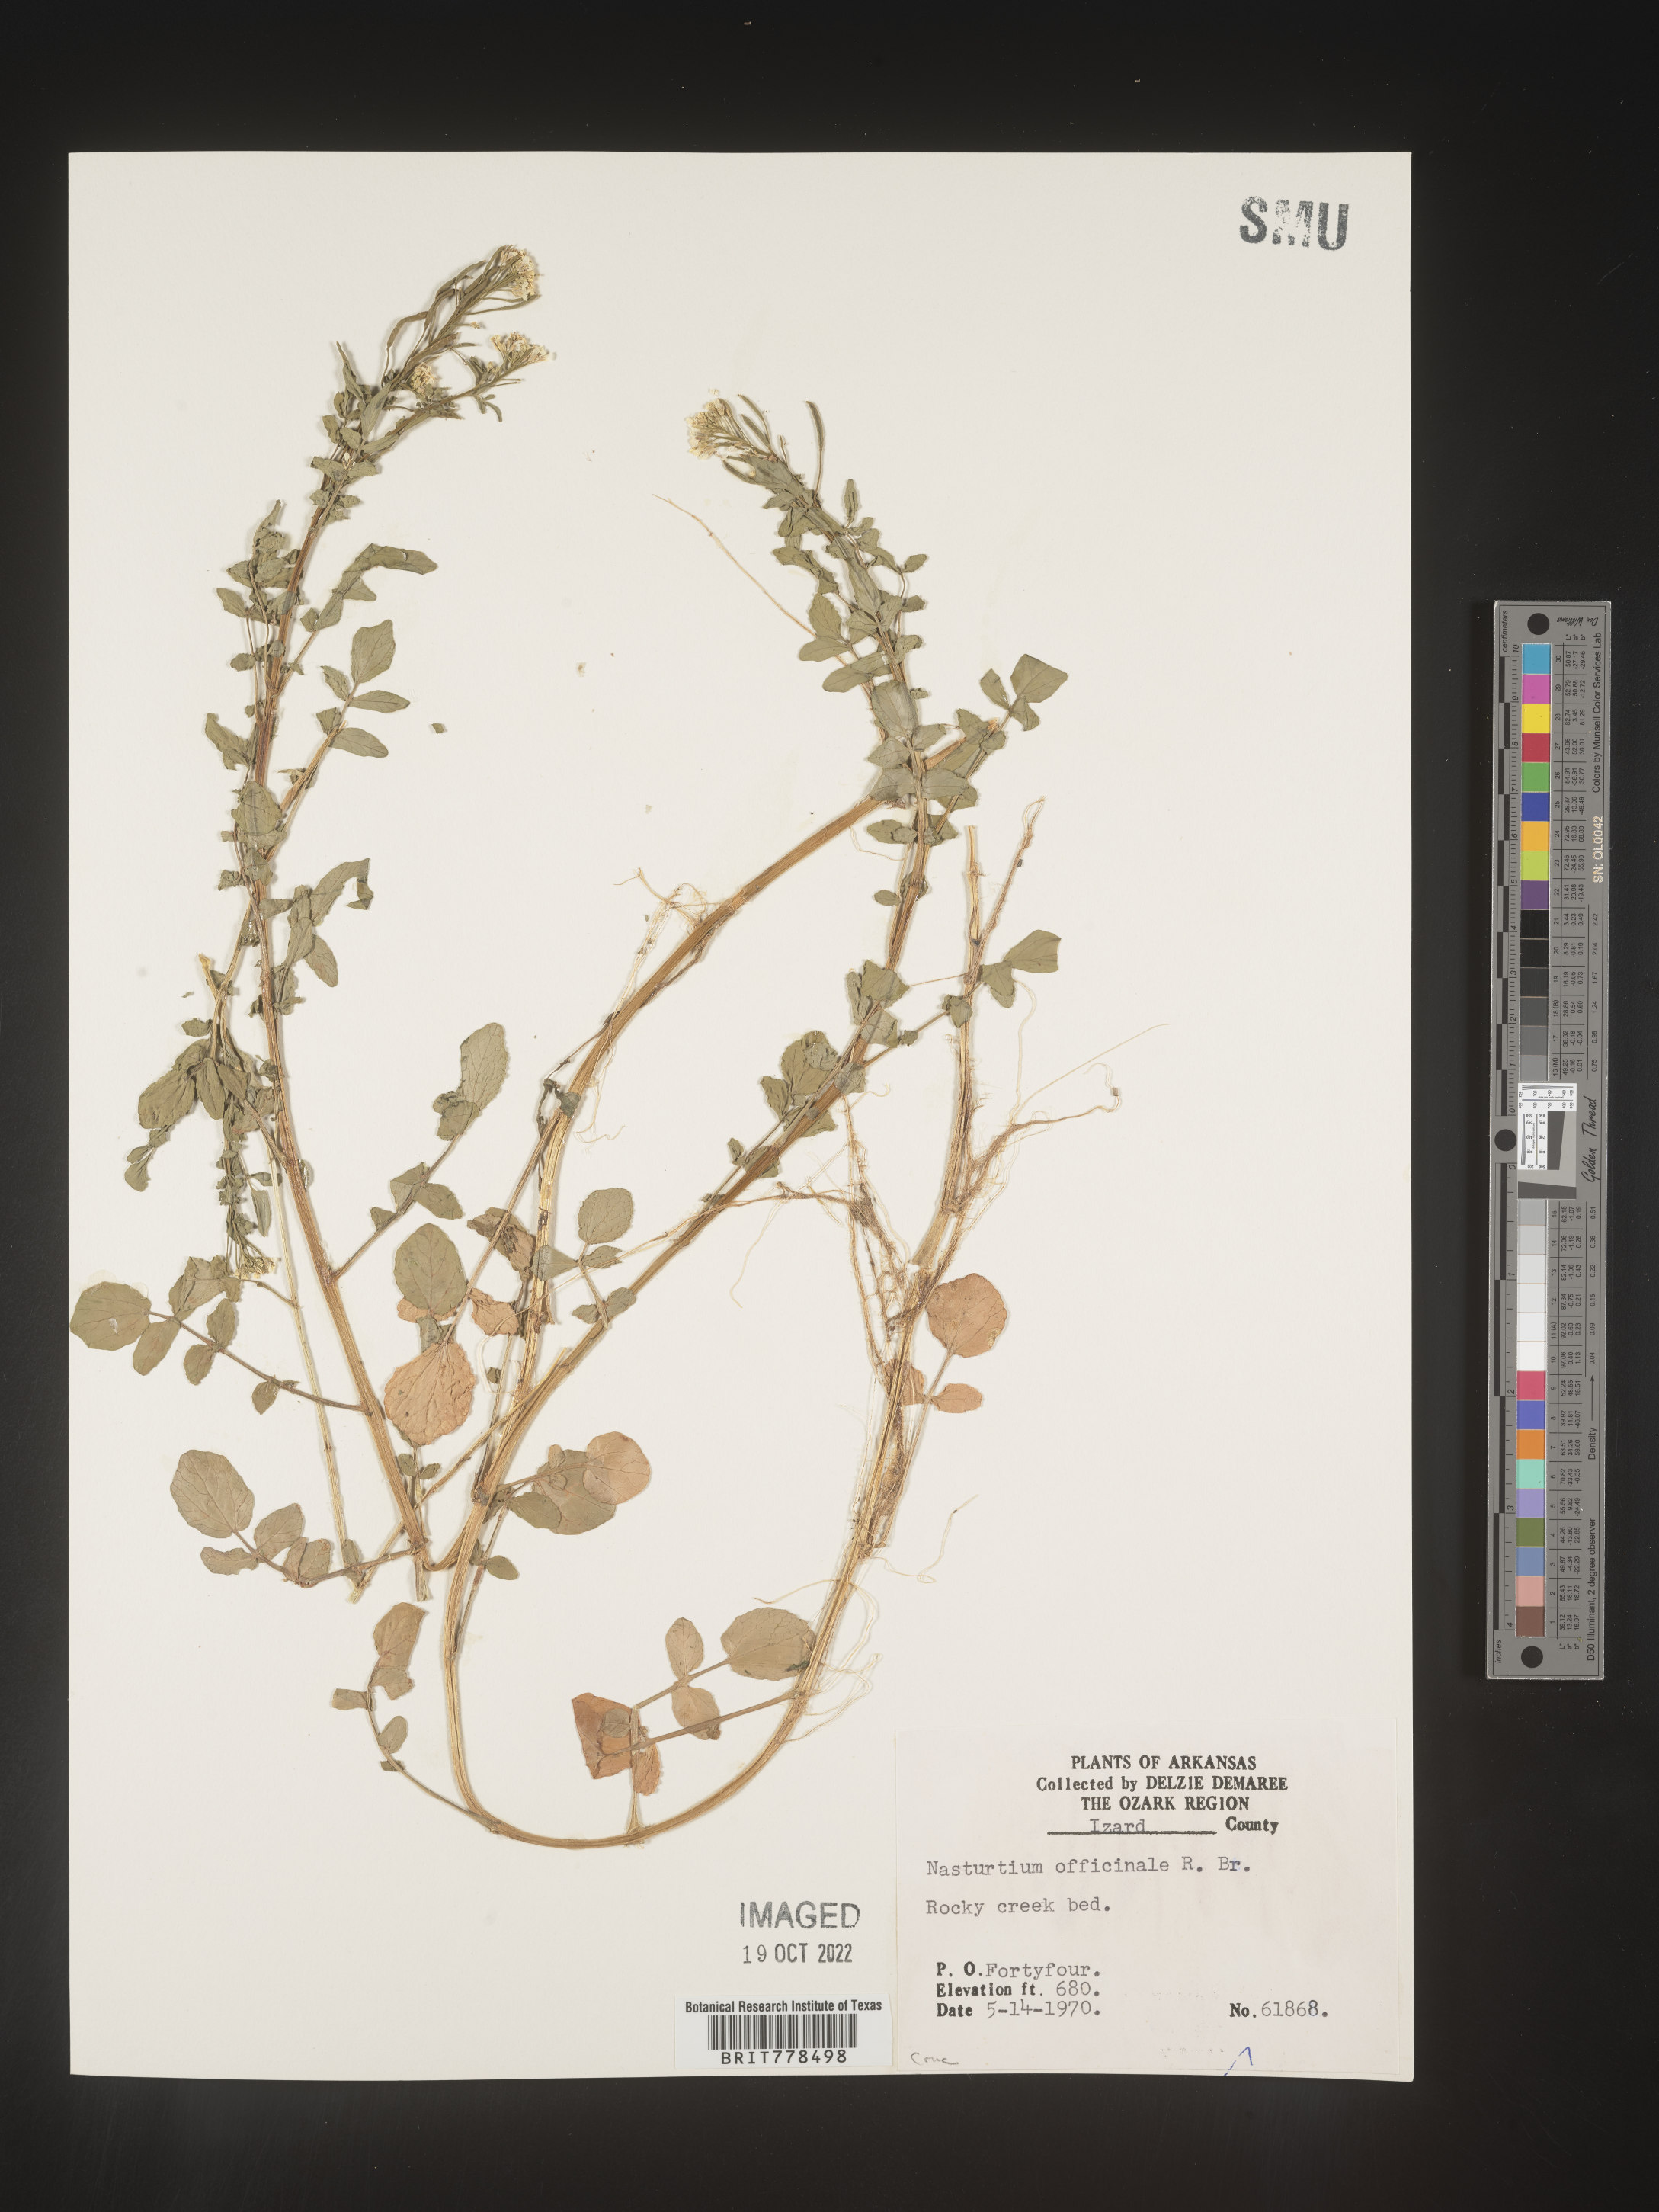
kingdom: Plantae
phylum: Tracheophyta
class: Magnoliopsida
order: Brassicales
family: Brassicaceae
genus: Nasturtium
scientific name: Nasturtium officinale
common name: Watercress
